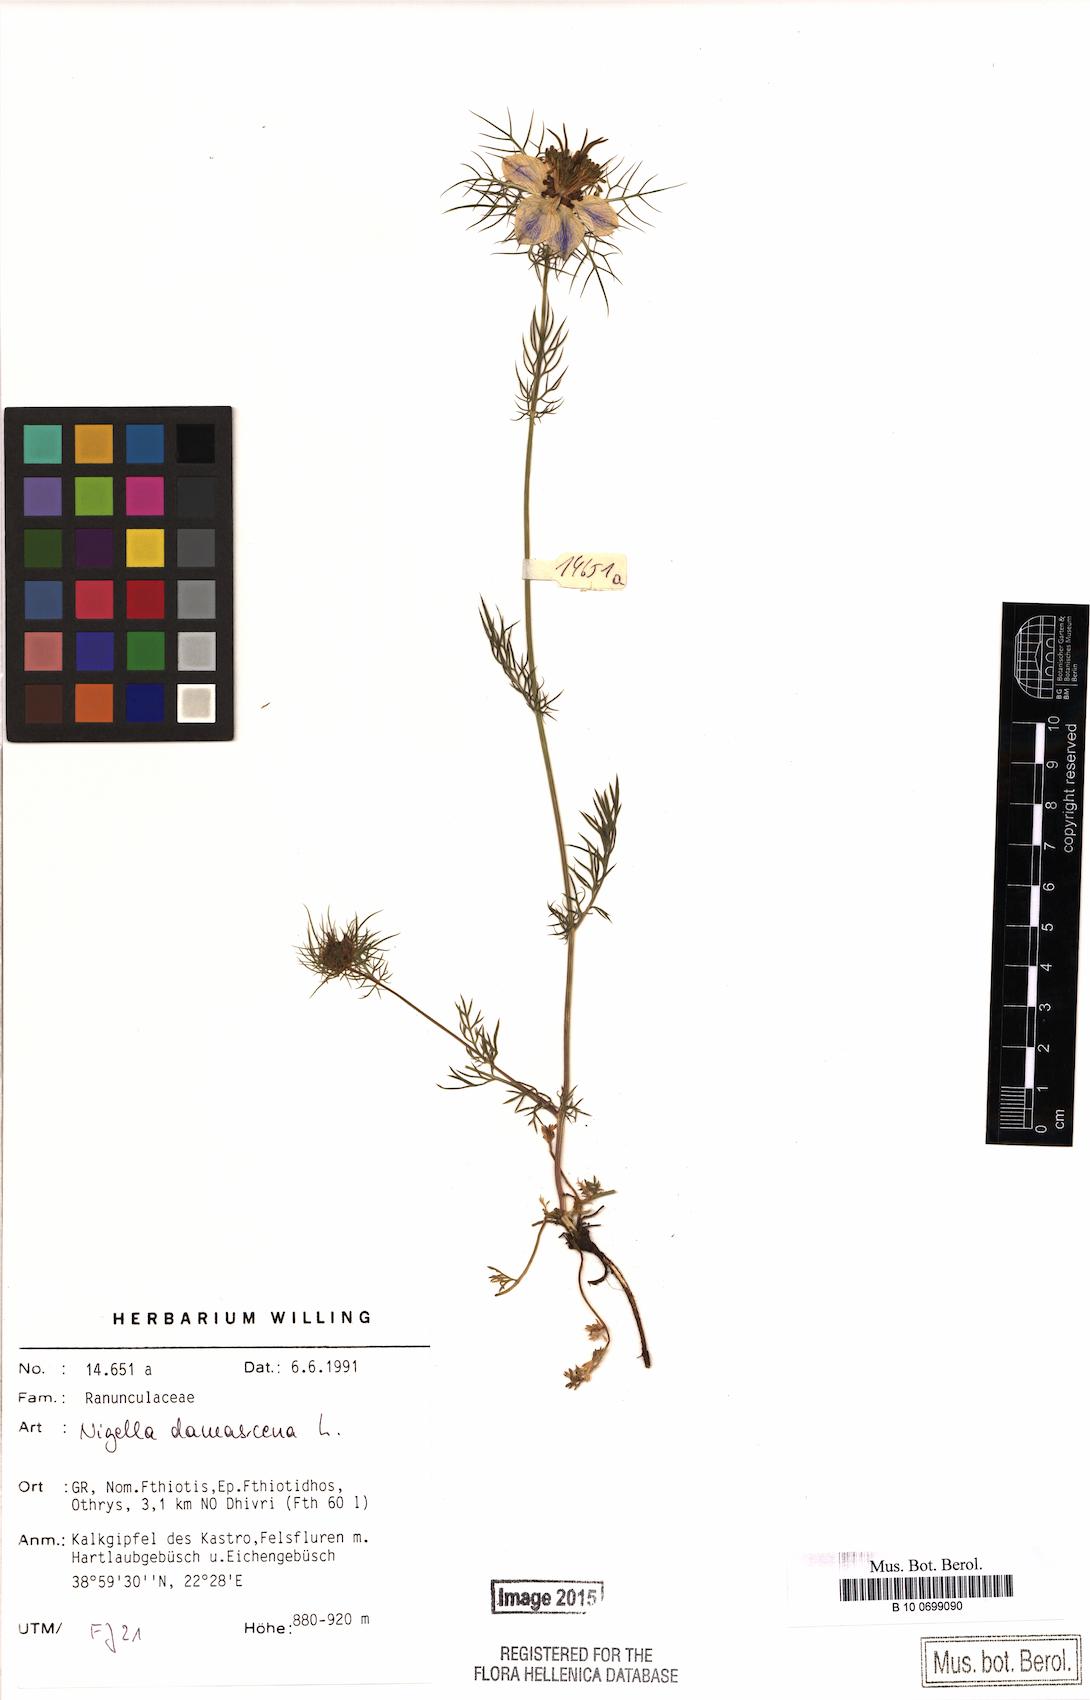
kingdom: Plantae
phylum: Tracheophyta
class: Magnoliopsida
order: Ranunculales
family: Ranunculaceae
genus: Nigella
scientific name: Nigella damascena
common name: Love-in-a-mist
